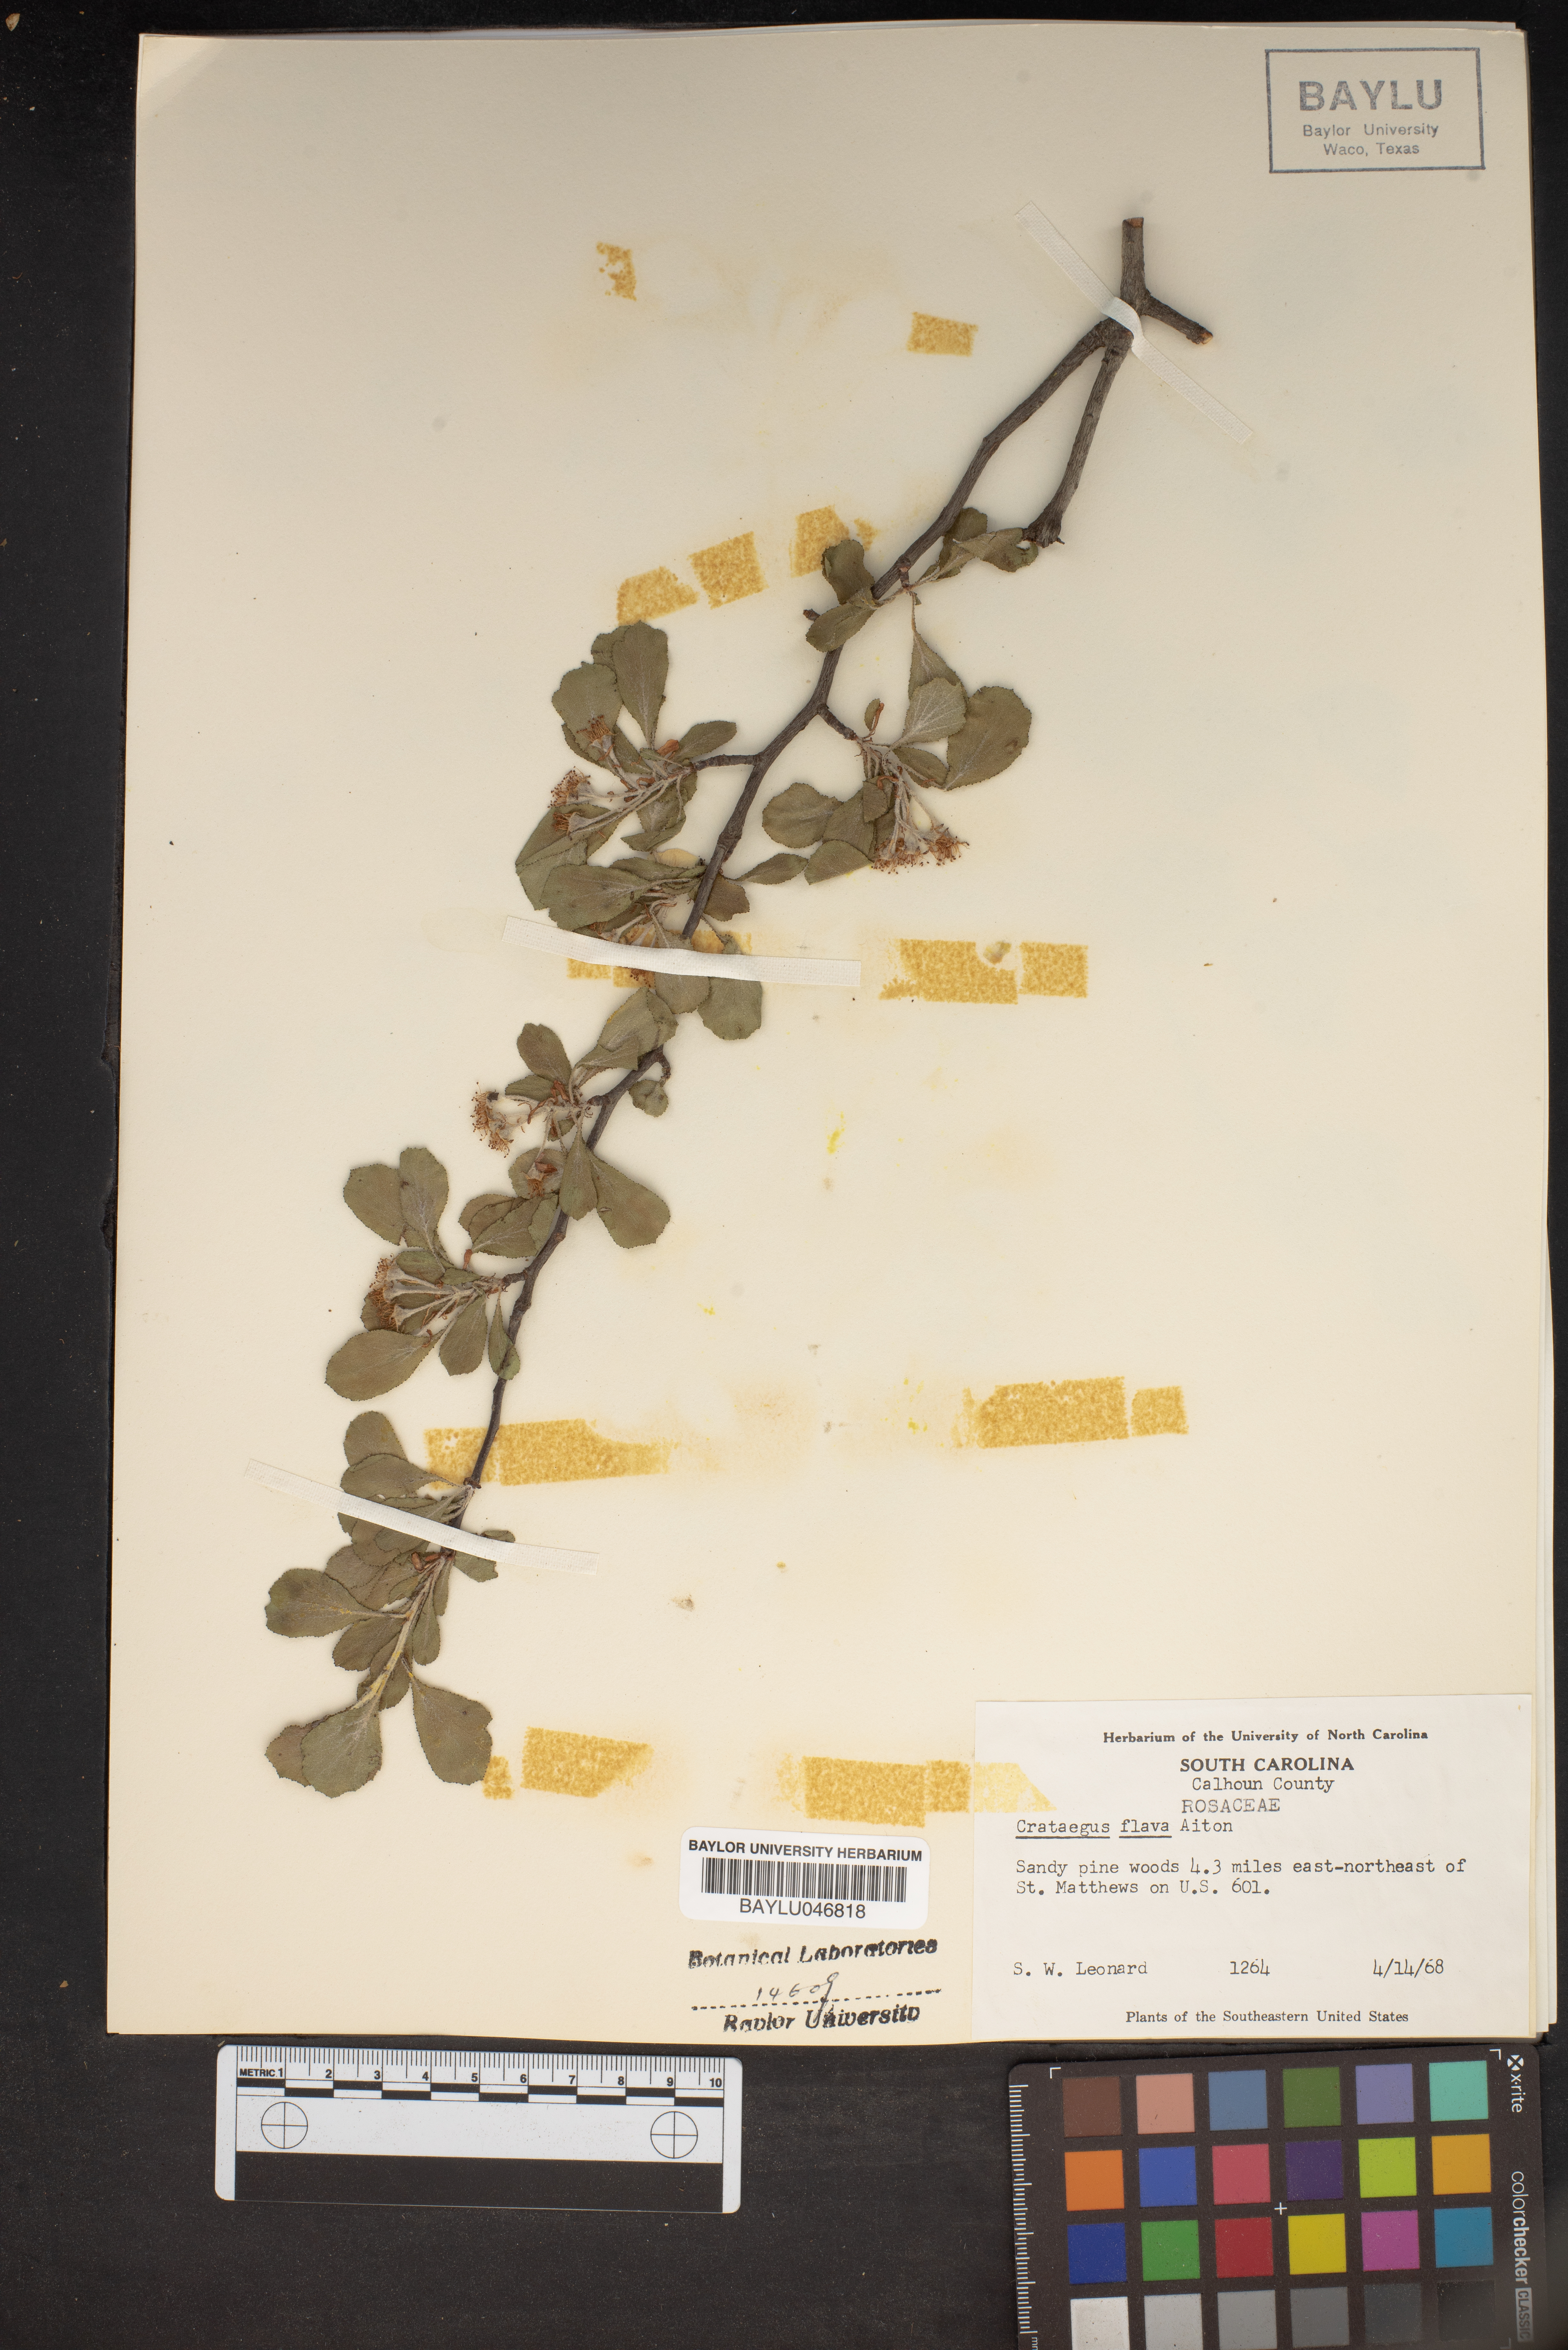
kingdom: Plantae
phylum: Tracheophyta
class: Magnoliopsida
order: Rosales
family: Rosaceae
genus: Crataegus
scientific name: Crataegus flava
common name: Yellow hawthorn
